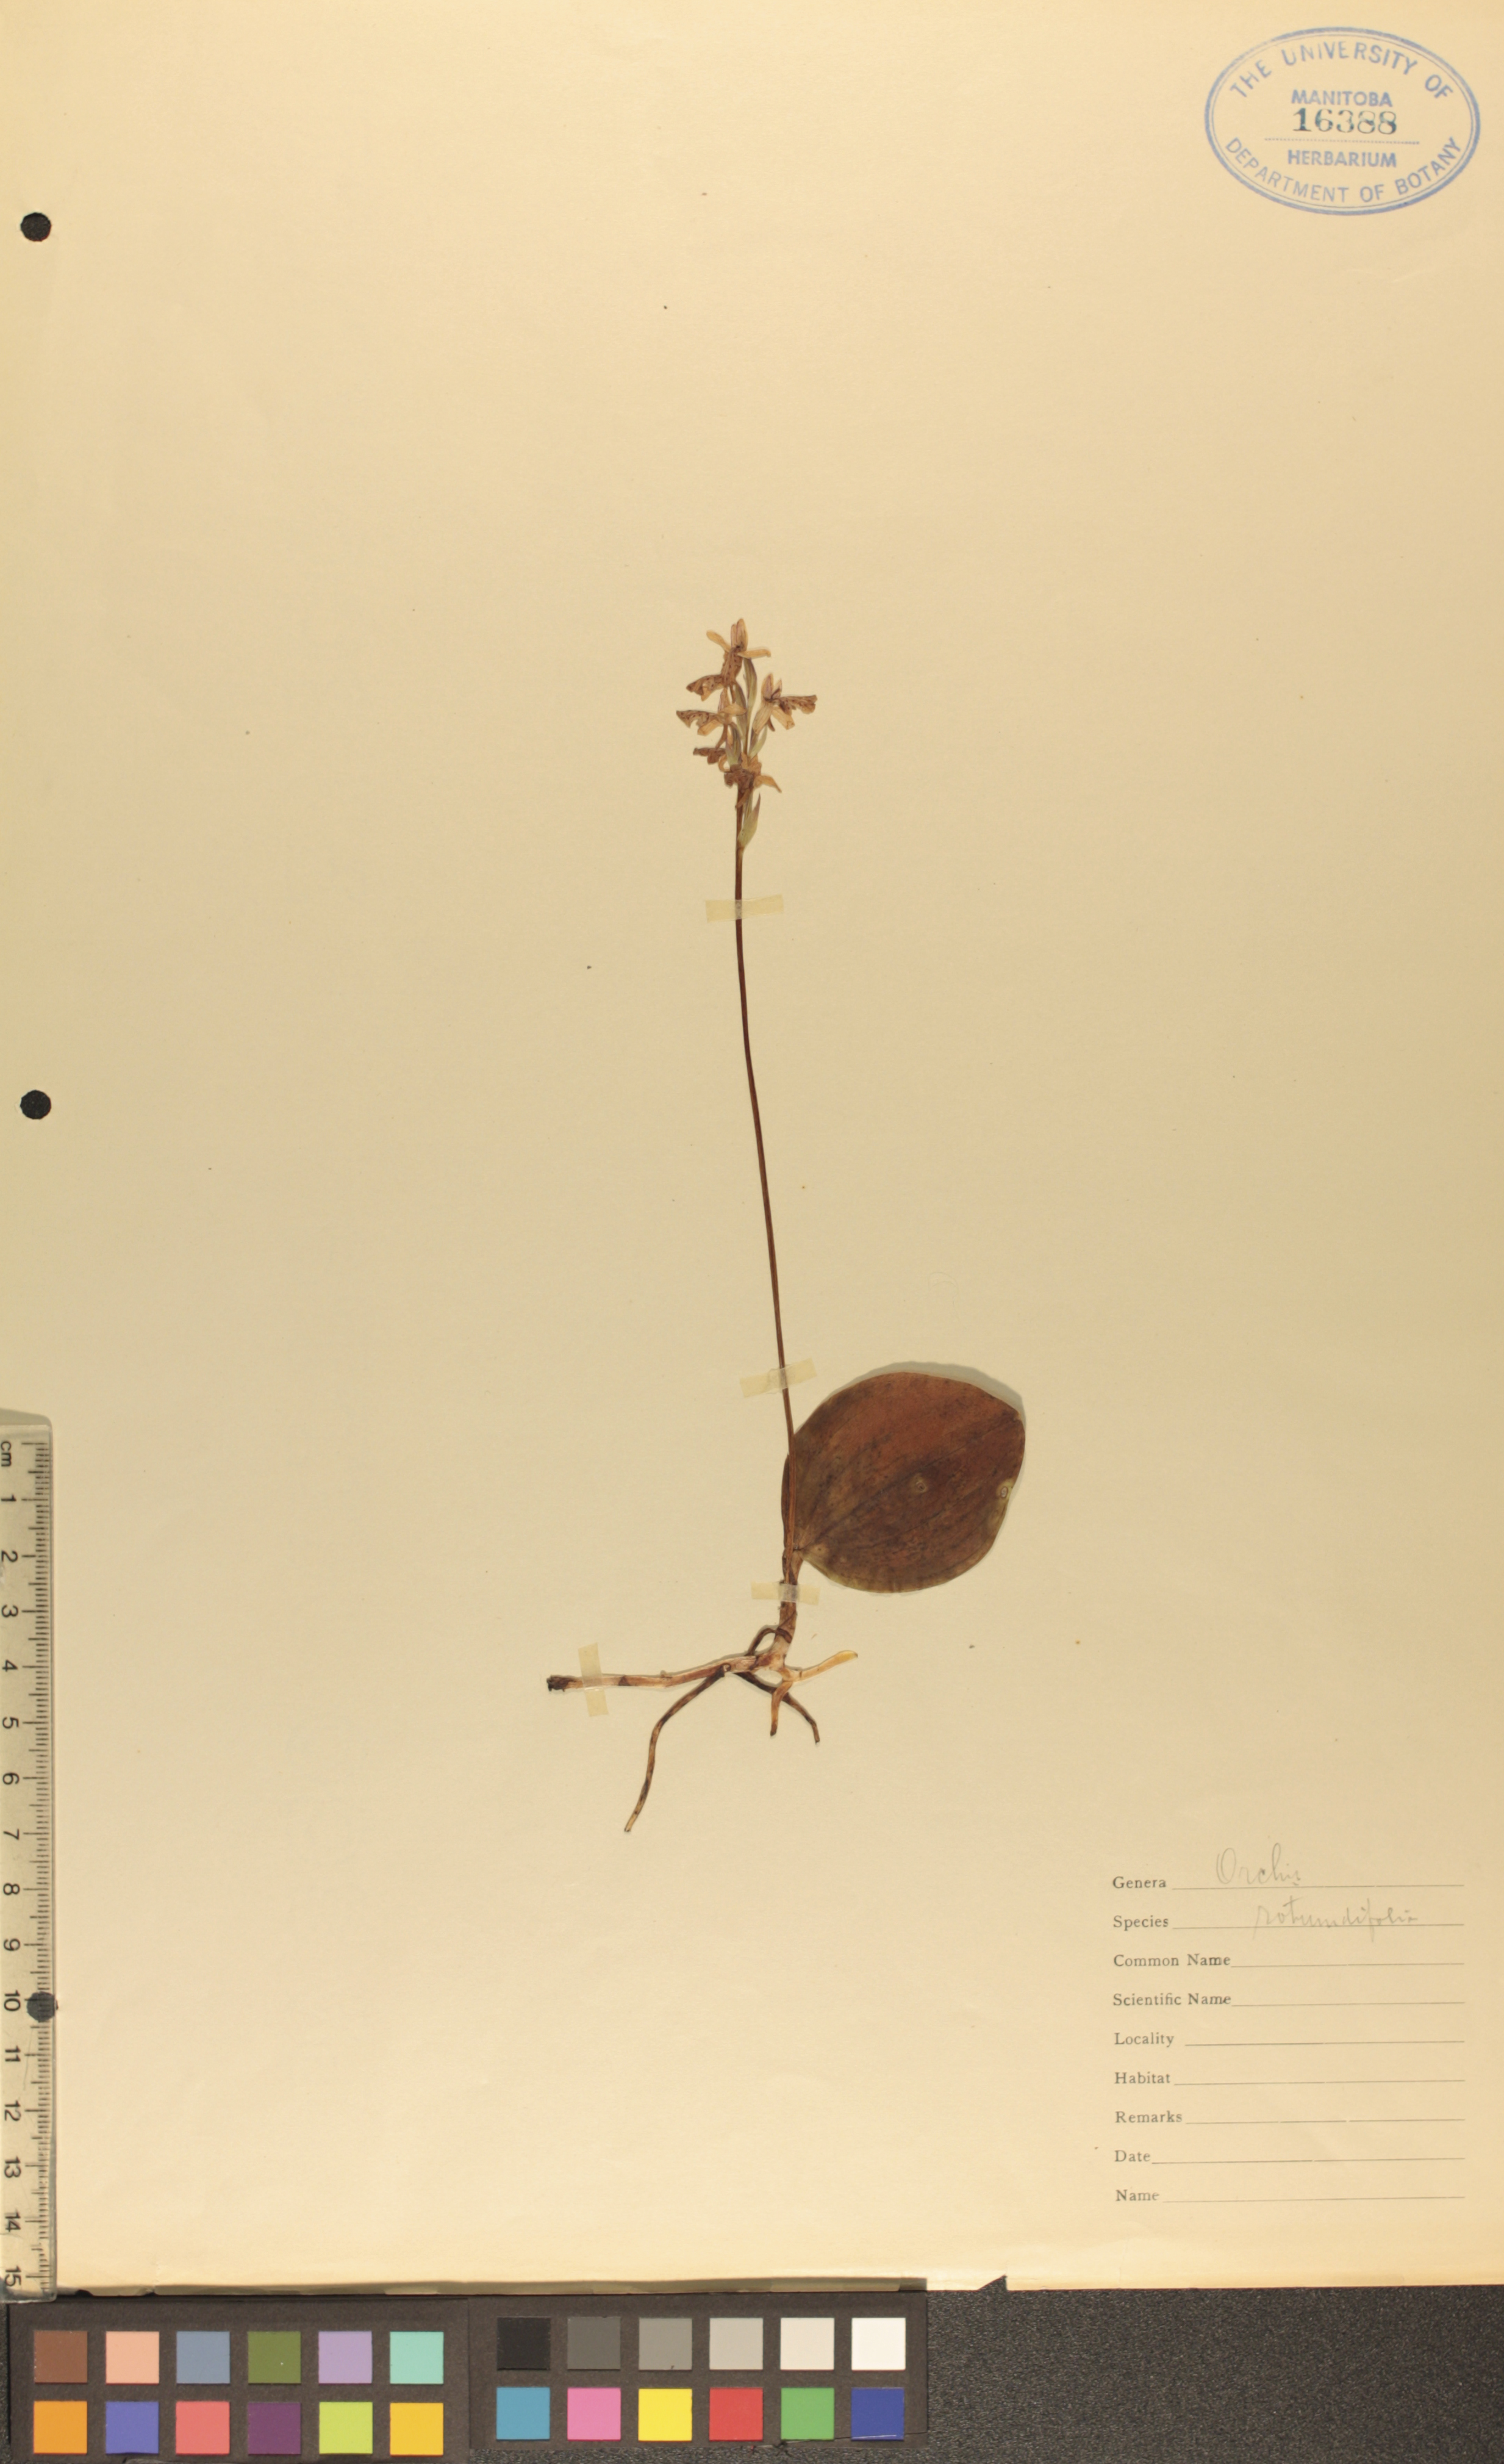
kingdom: Plantae
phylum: Tracheophyta
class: Liliopsida
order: Asparagales
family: Orchidaceae
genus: Galearis
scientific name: Galearis rotundifolia
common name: One-leaved orchis
